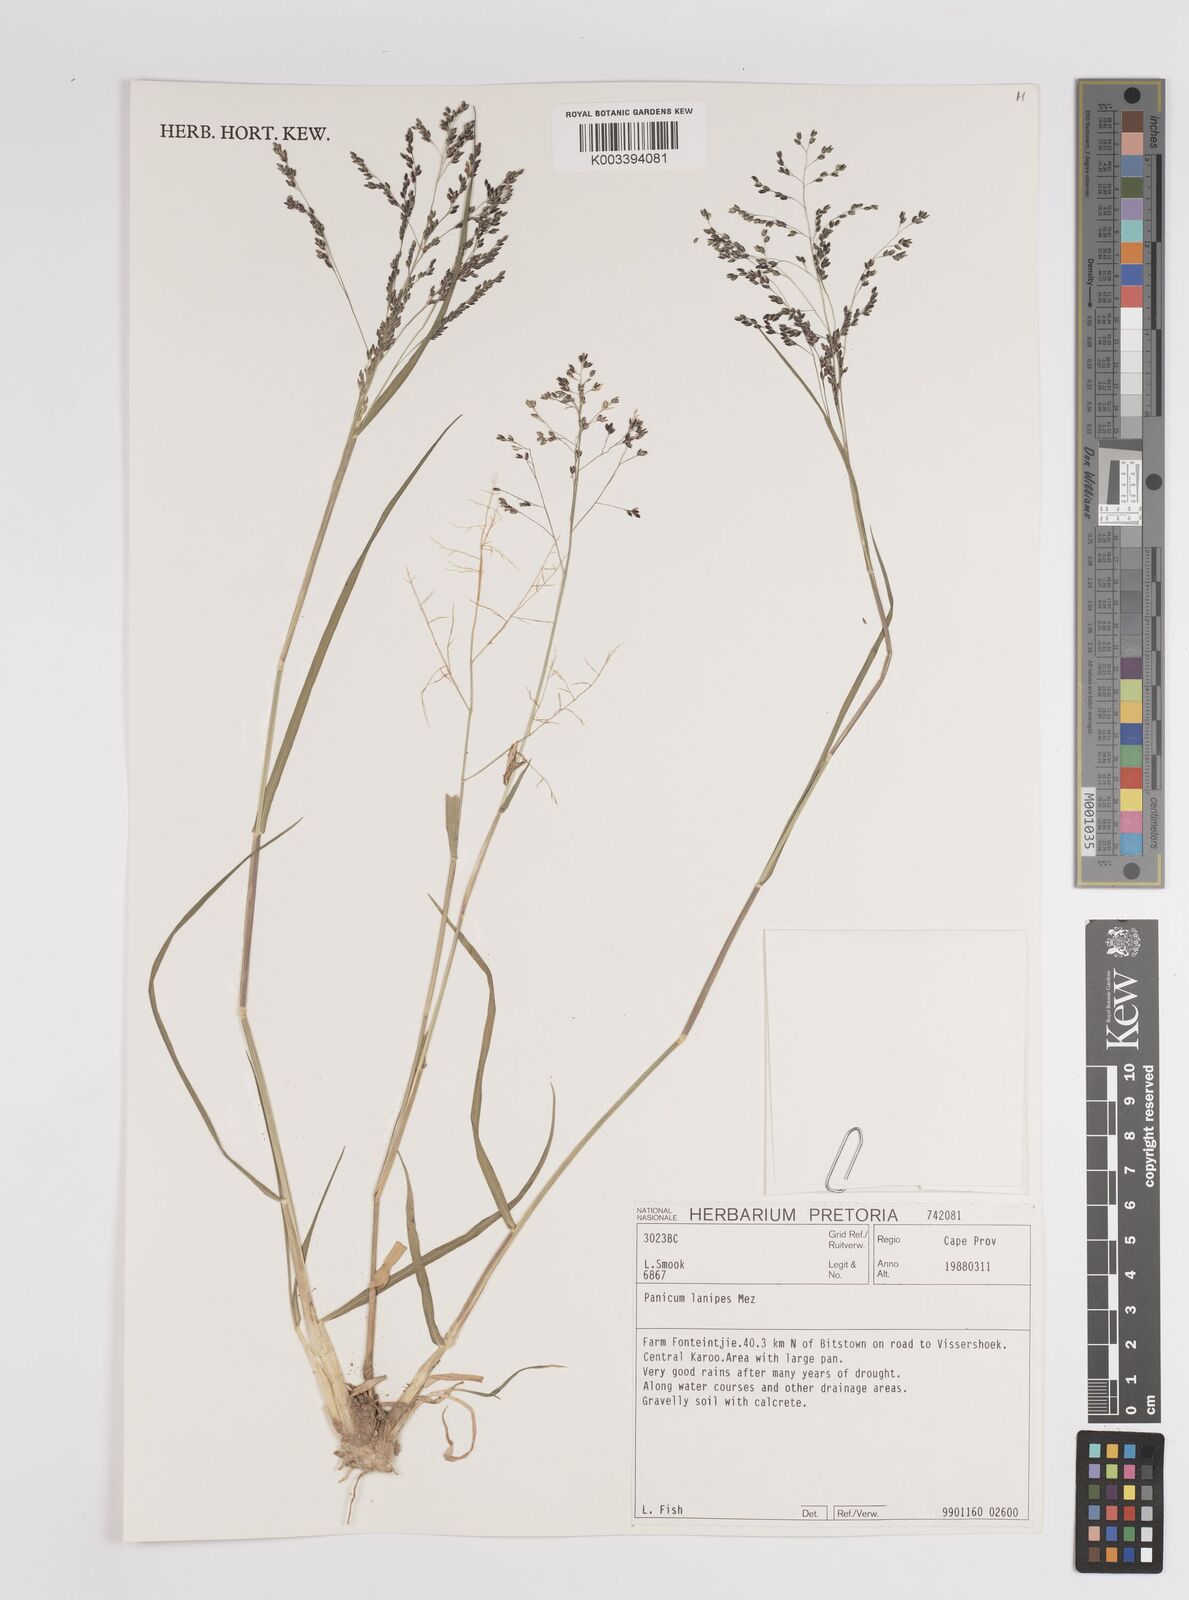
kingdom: Plantae
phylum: Tracheophyta
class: Liliopsida
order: Poales
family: Poaceae
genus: Panicum
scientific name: Panicum lanipes
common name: Wolvoet panicum
